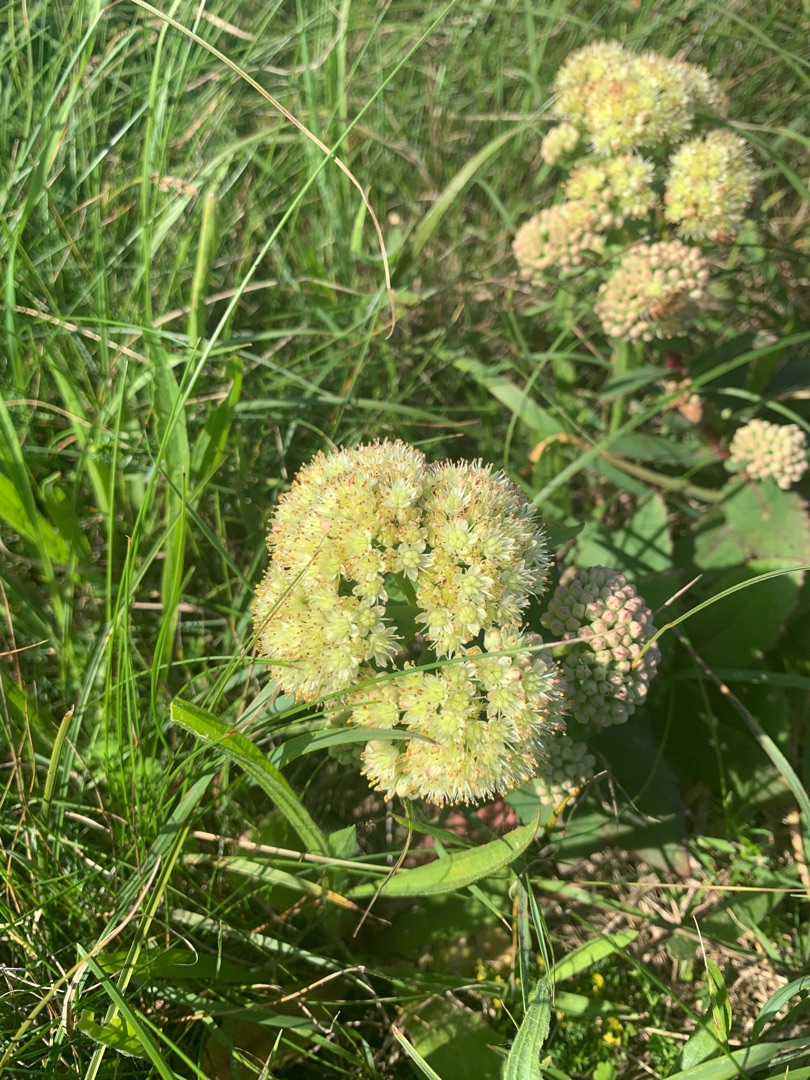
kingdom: Plantae
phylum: Tracheophyta
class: Magnoliopsida
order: Saxifragales
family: Crassulaceae
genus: Hylotelephium
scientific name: Hylotelephium maximum
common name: Almindelig sankthansurt
